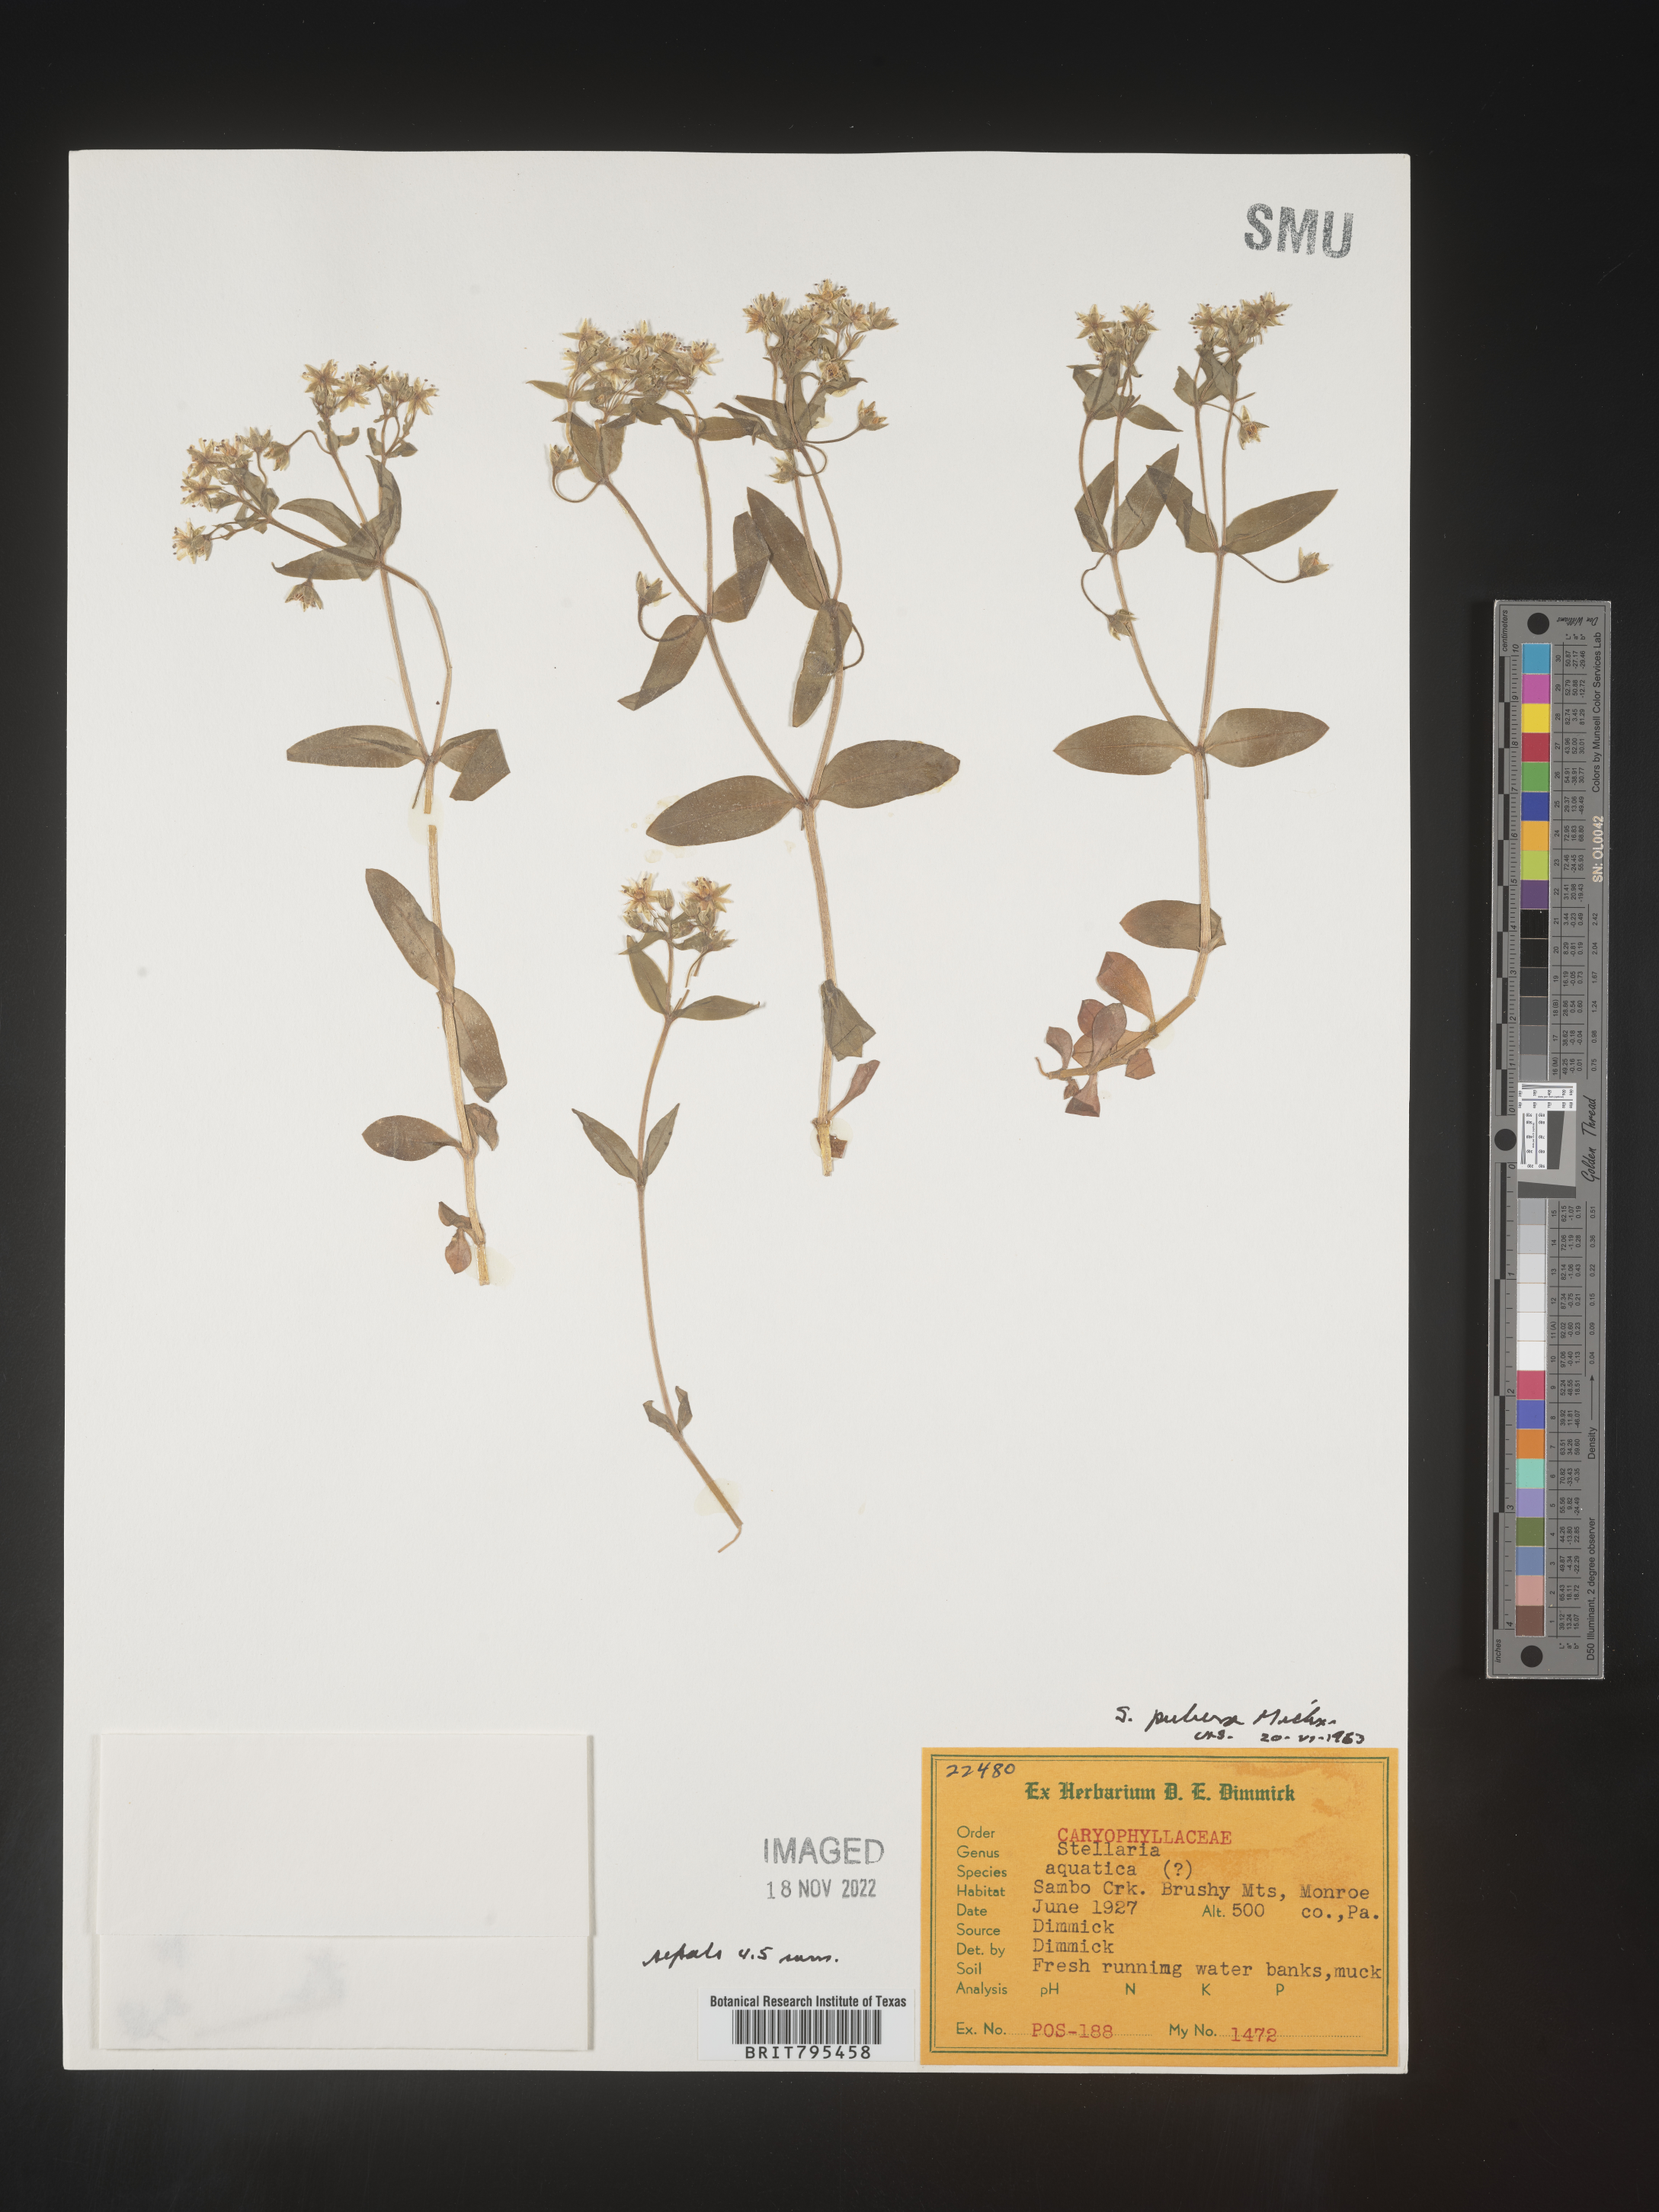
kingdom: Plantae
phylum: Tracheophyta
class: Magnoliopsida
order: Caryophyllales
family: Caryophyllaceae
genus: Stellaria
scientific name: Stellaria pubera
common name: Star chickweed
